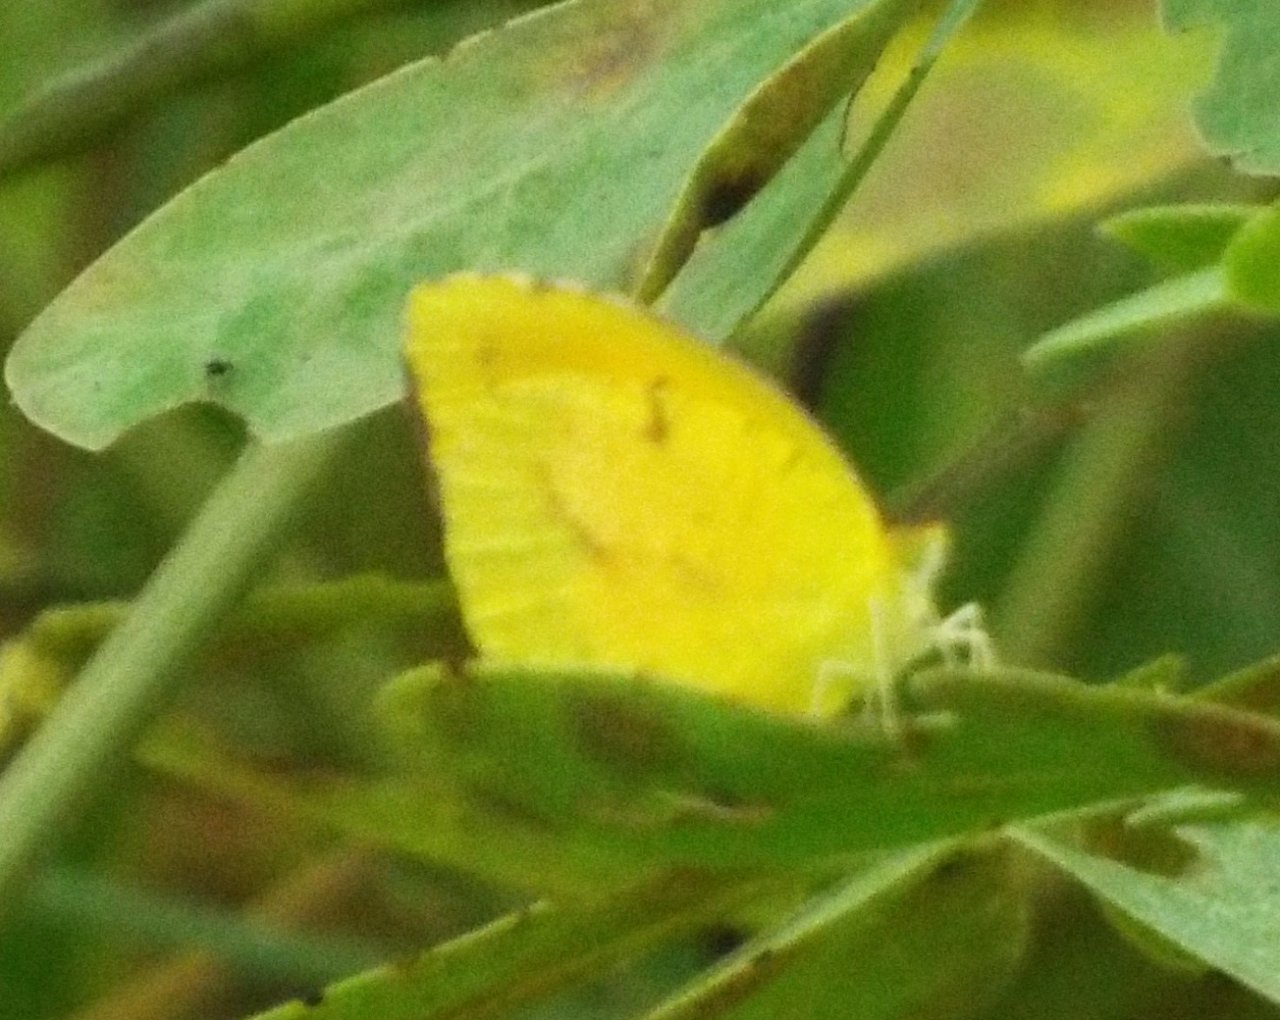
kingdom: Animalia
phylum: Arthropoda
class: Insecta
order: Lepidoptera
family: Pieridae
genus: Abaeis
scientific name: Abaeis nicippe
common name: Sleepy Orange
